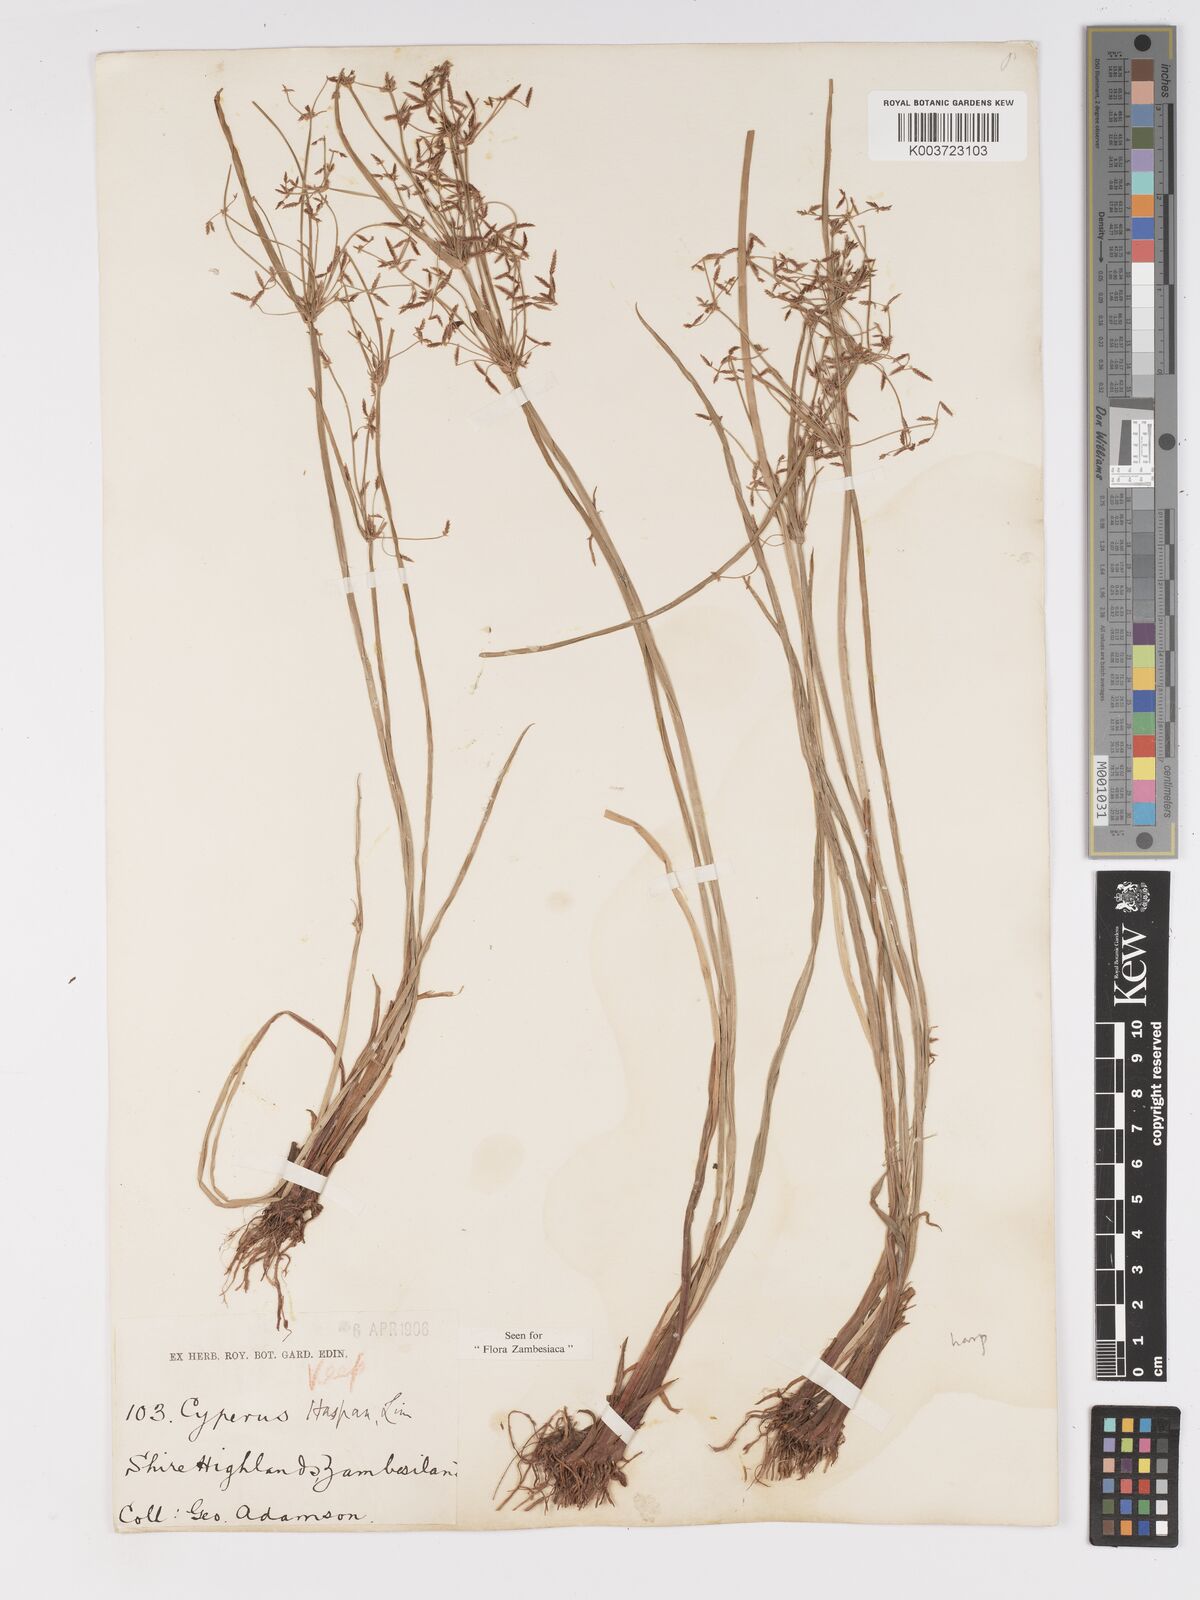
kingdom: Plantae
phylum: Tracheophyta
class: Liliopsida
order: Poales
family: Cyperaceae
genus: Cyperus
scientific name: Cyperus haspan
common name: Haspan flatsedge
